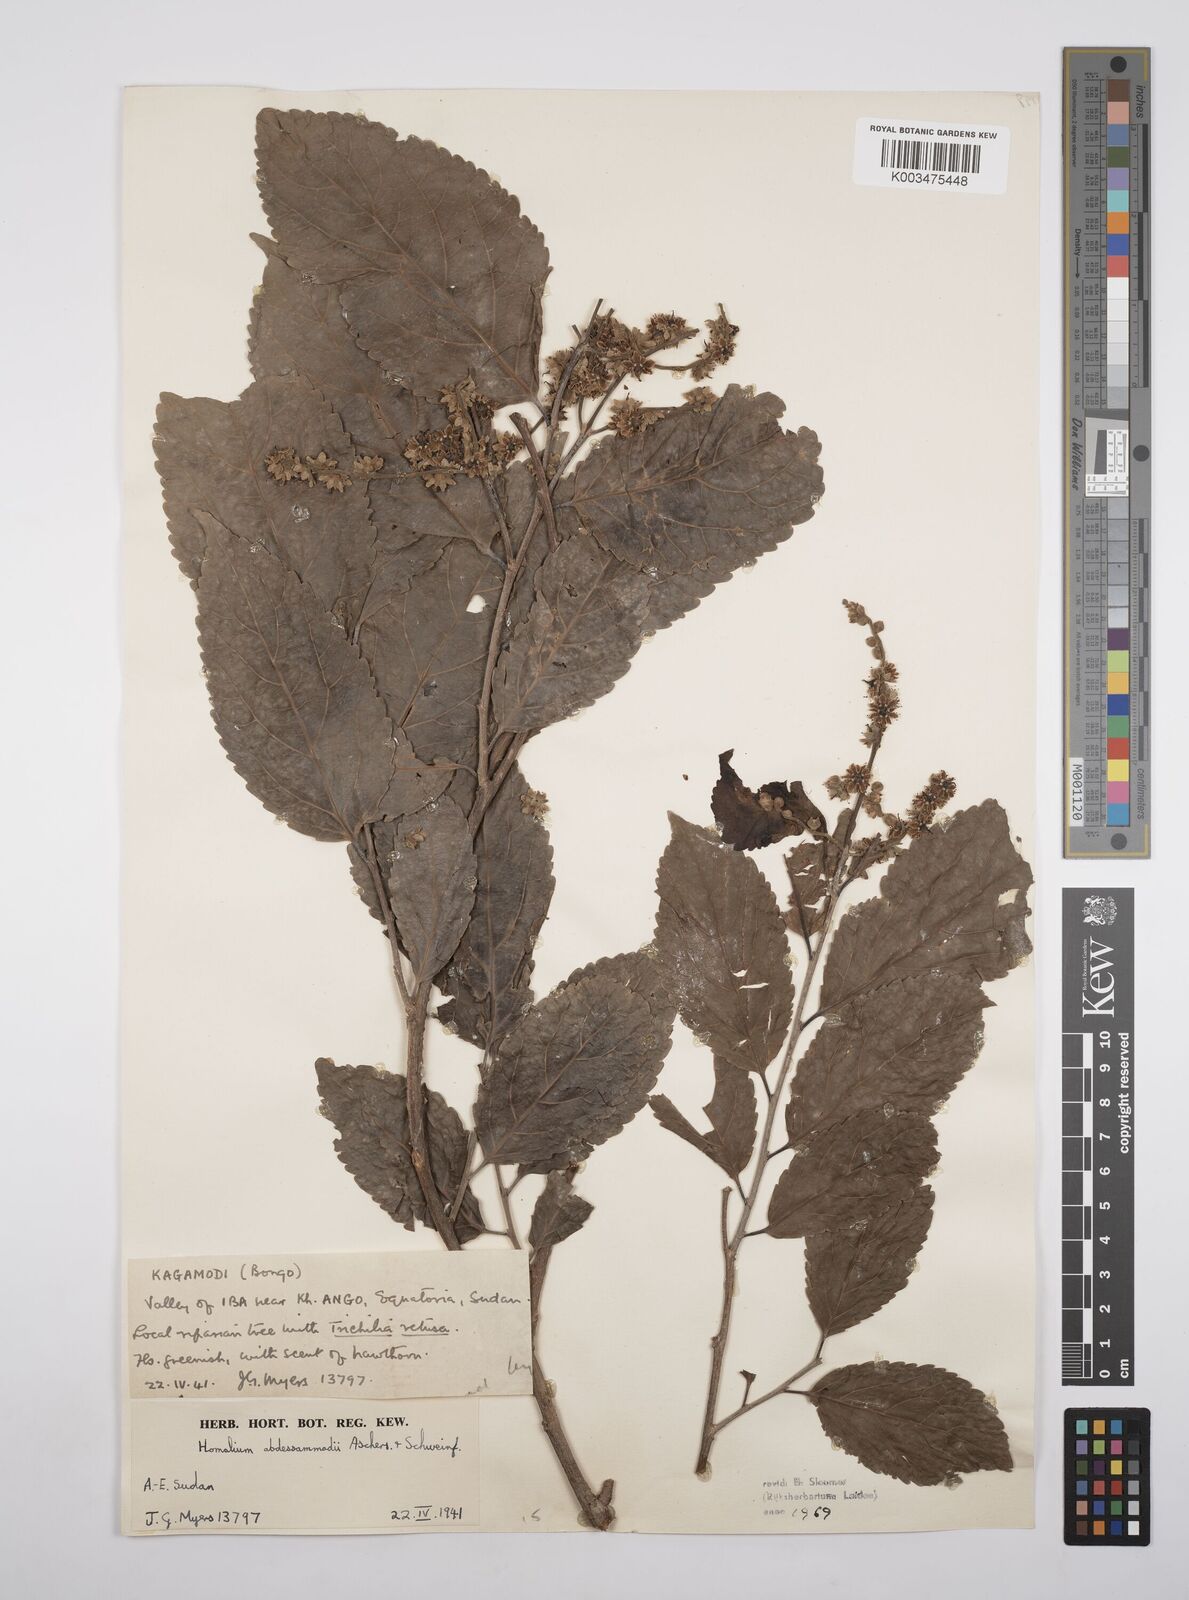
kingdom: Plantae
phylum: Tracheophyta
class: Magnoliopsida
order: Malpighiales
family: Salicaceae
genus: Homalium
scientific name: Homalium abdessammadii
